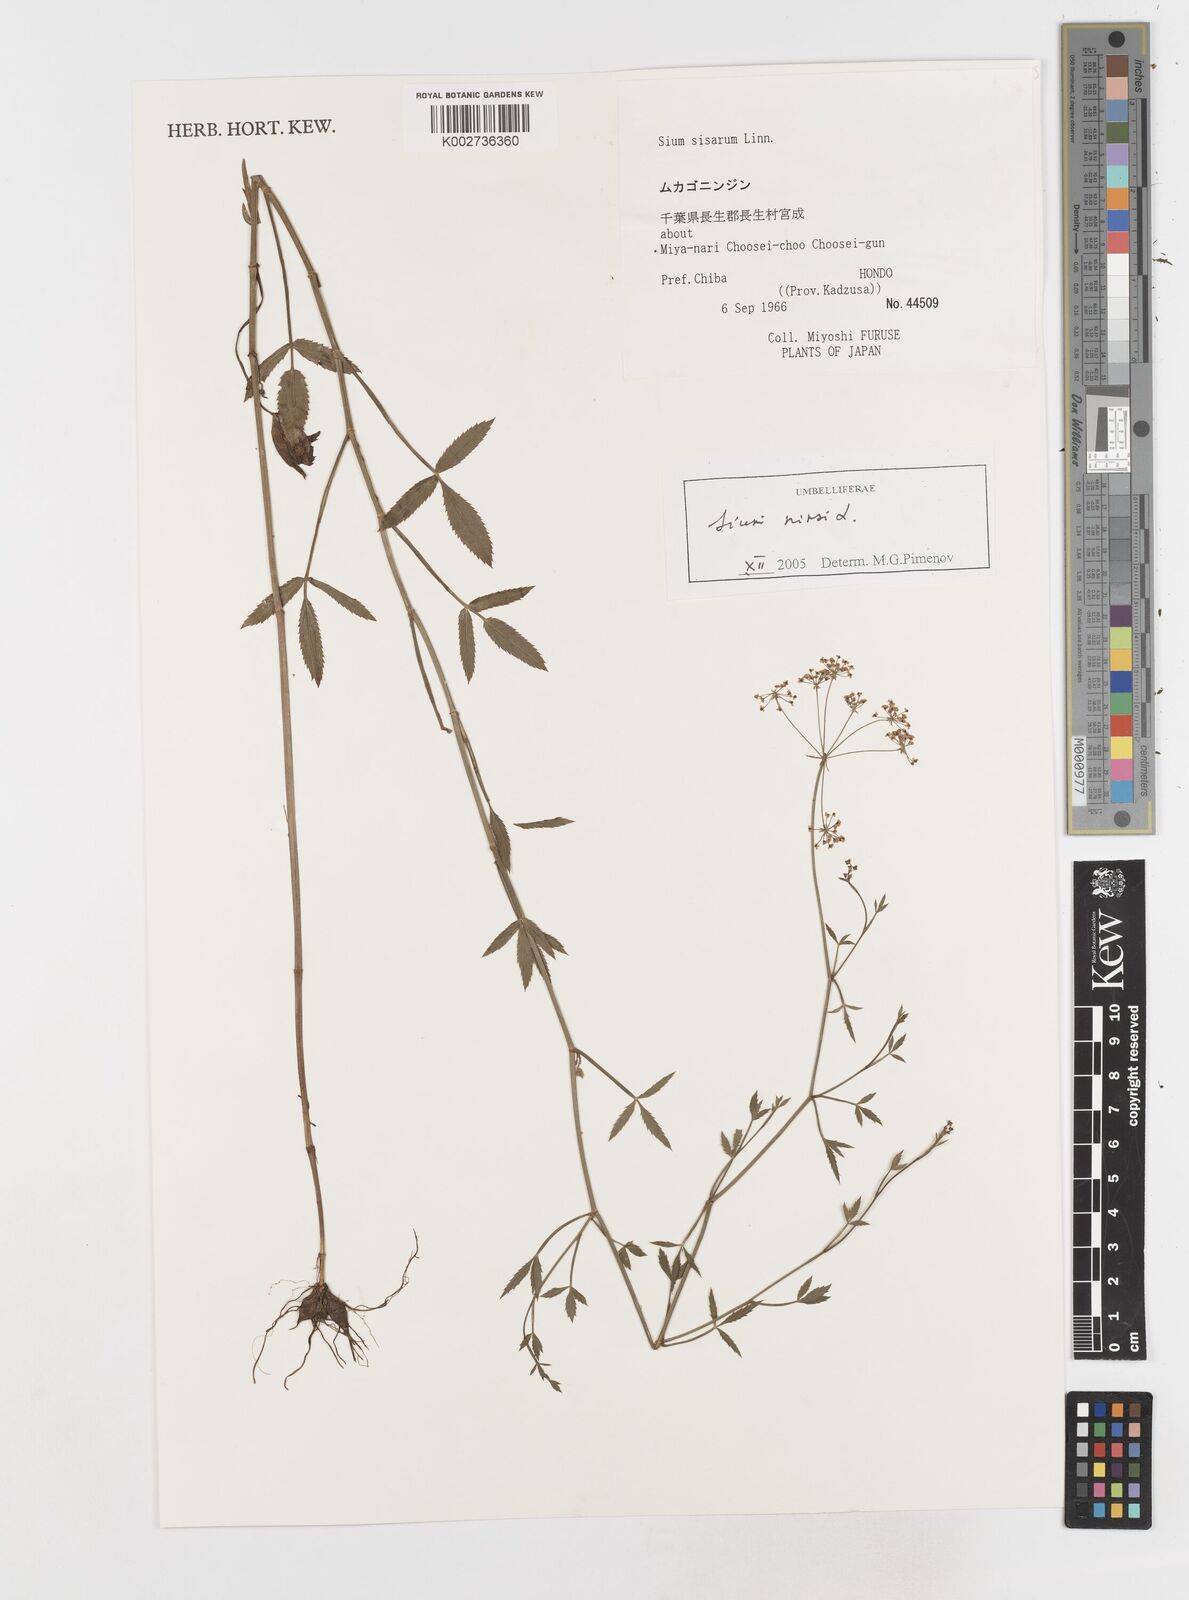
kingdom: Plantae
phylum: Tracheophyta
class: Magnoliopsida
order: Apiales
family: Apiaceae
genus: Sium
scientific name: Sium ninsi
